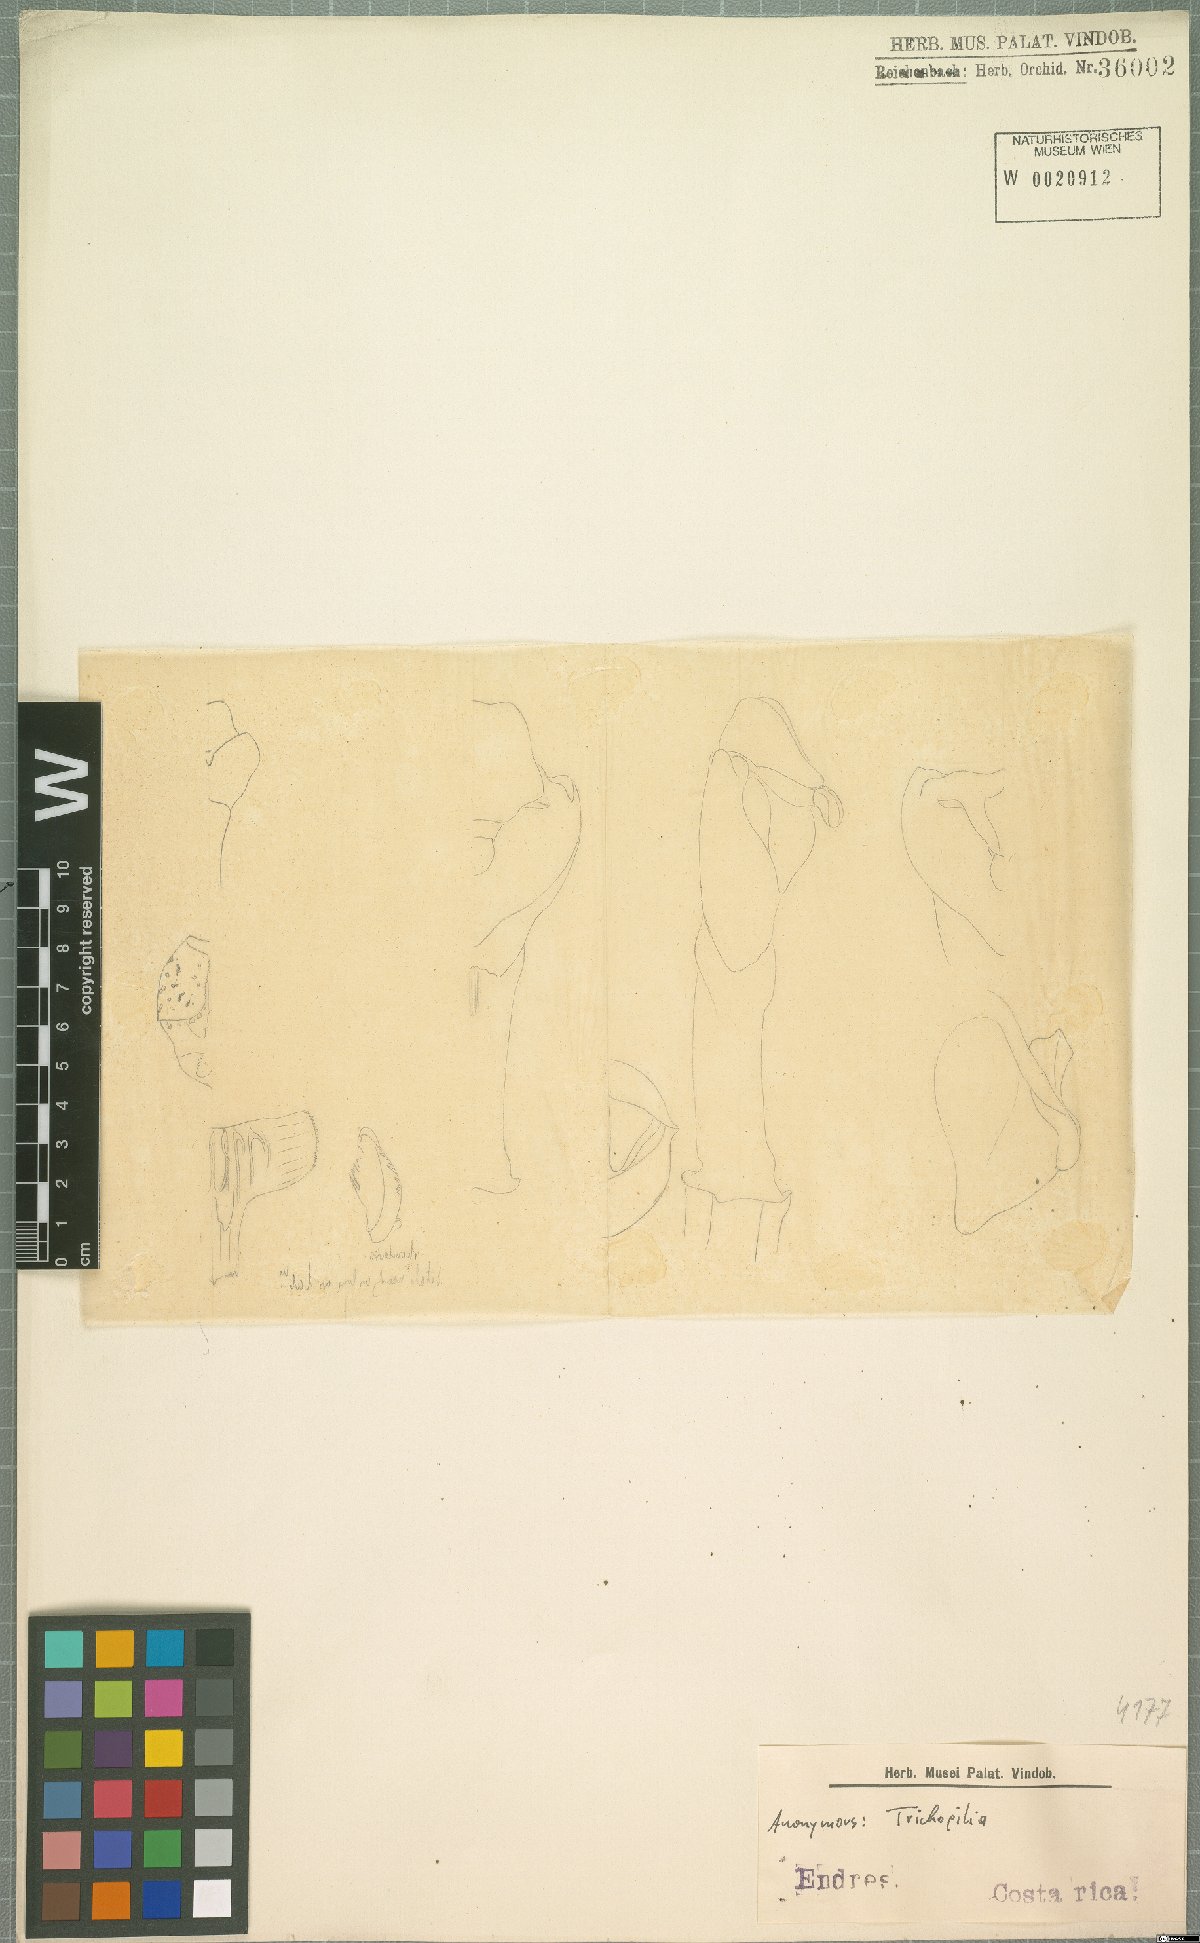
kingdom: Plantae
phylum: Tracheophyta
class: Liliopsida
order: Asparagales
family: Orchidaceae
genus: Trichopilia
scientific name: Trichopilia
